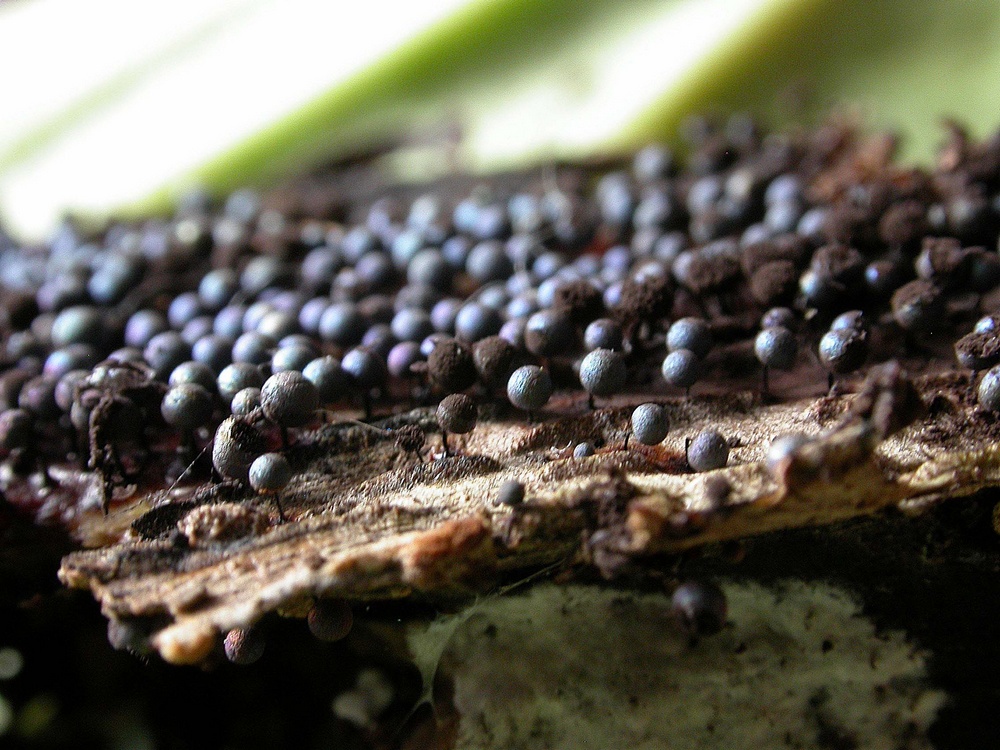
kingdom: Protozoa
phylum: Mycetozoa
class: Myxomycetes
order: Stemonitidales
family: Stemonitidaceae
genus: Lamproderma
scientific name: Lamproderma arcyrioides
